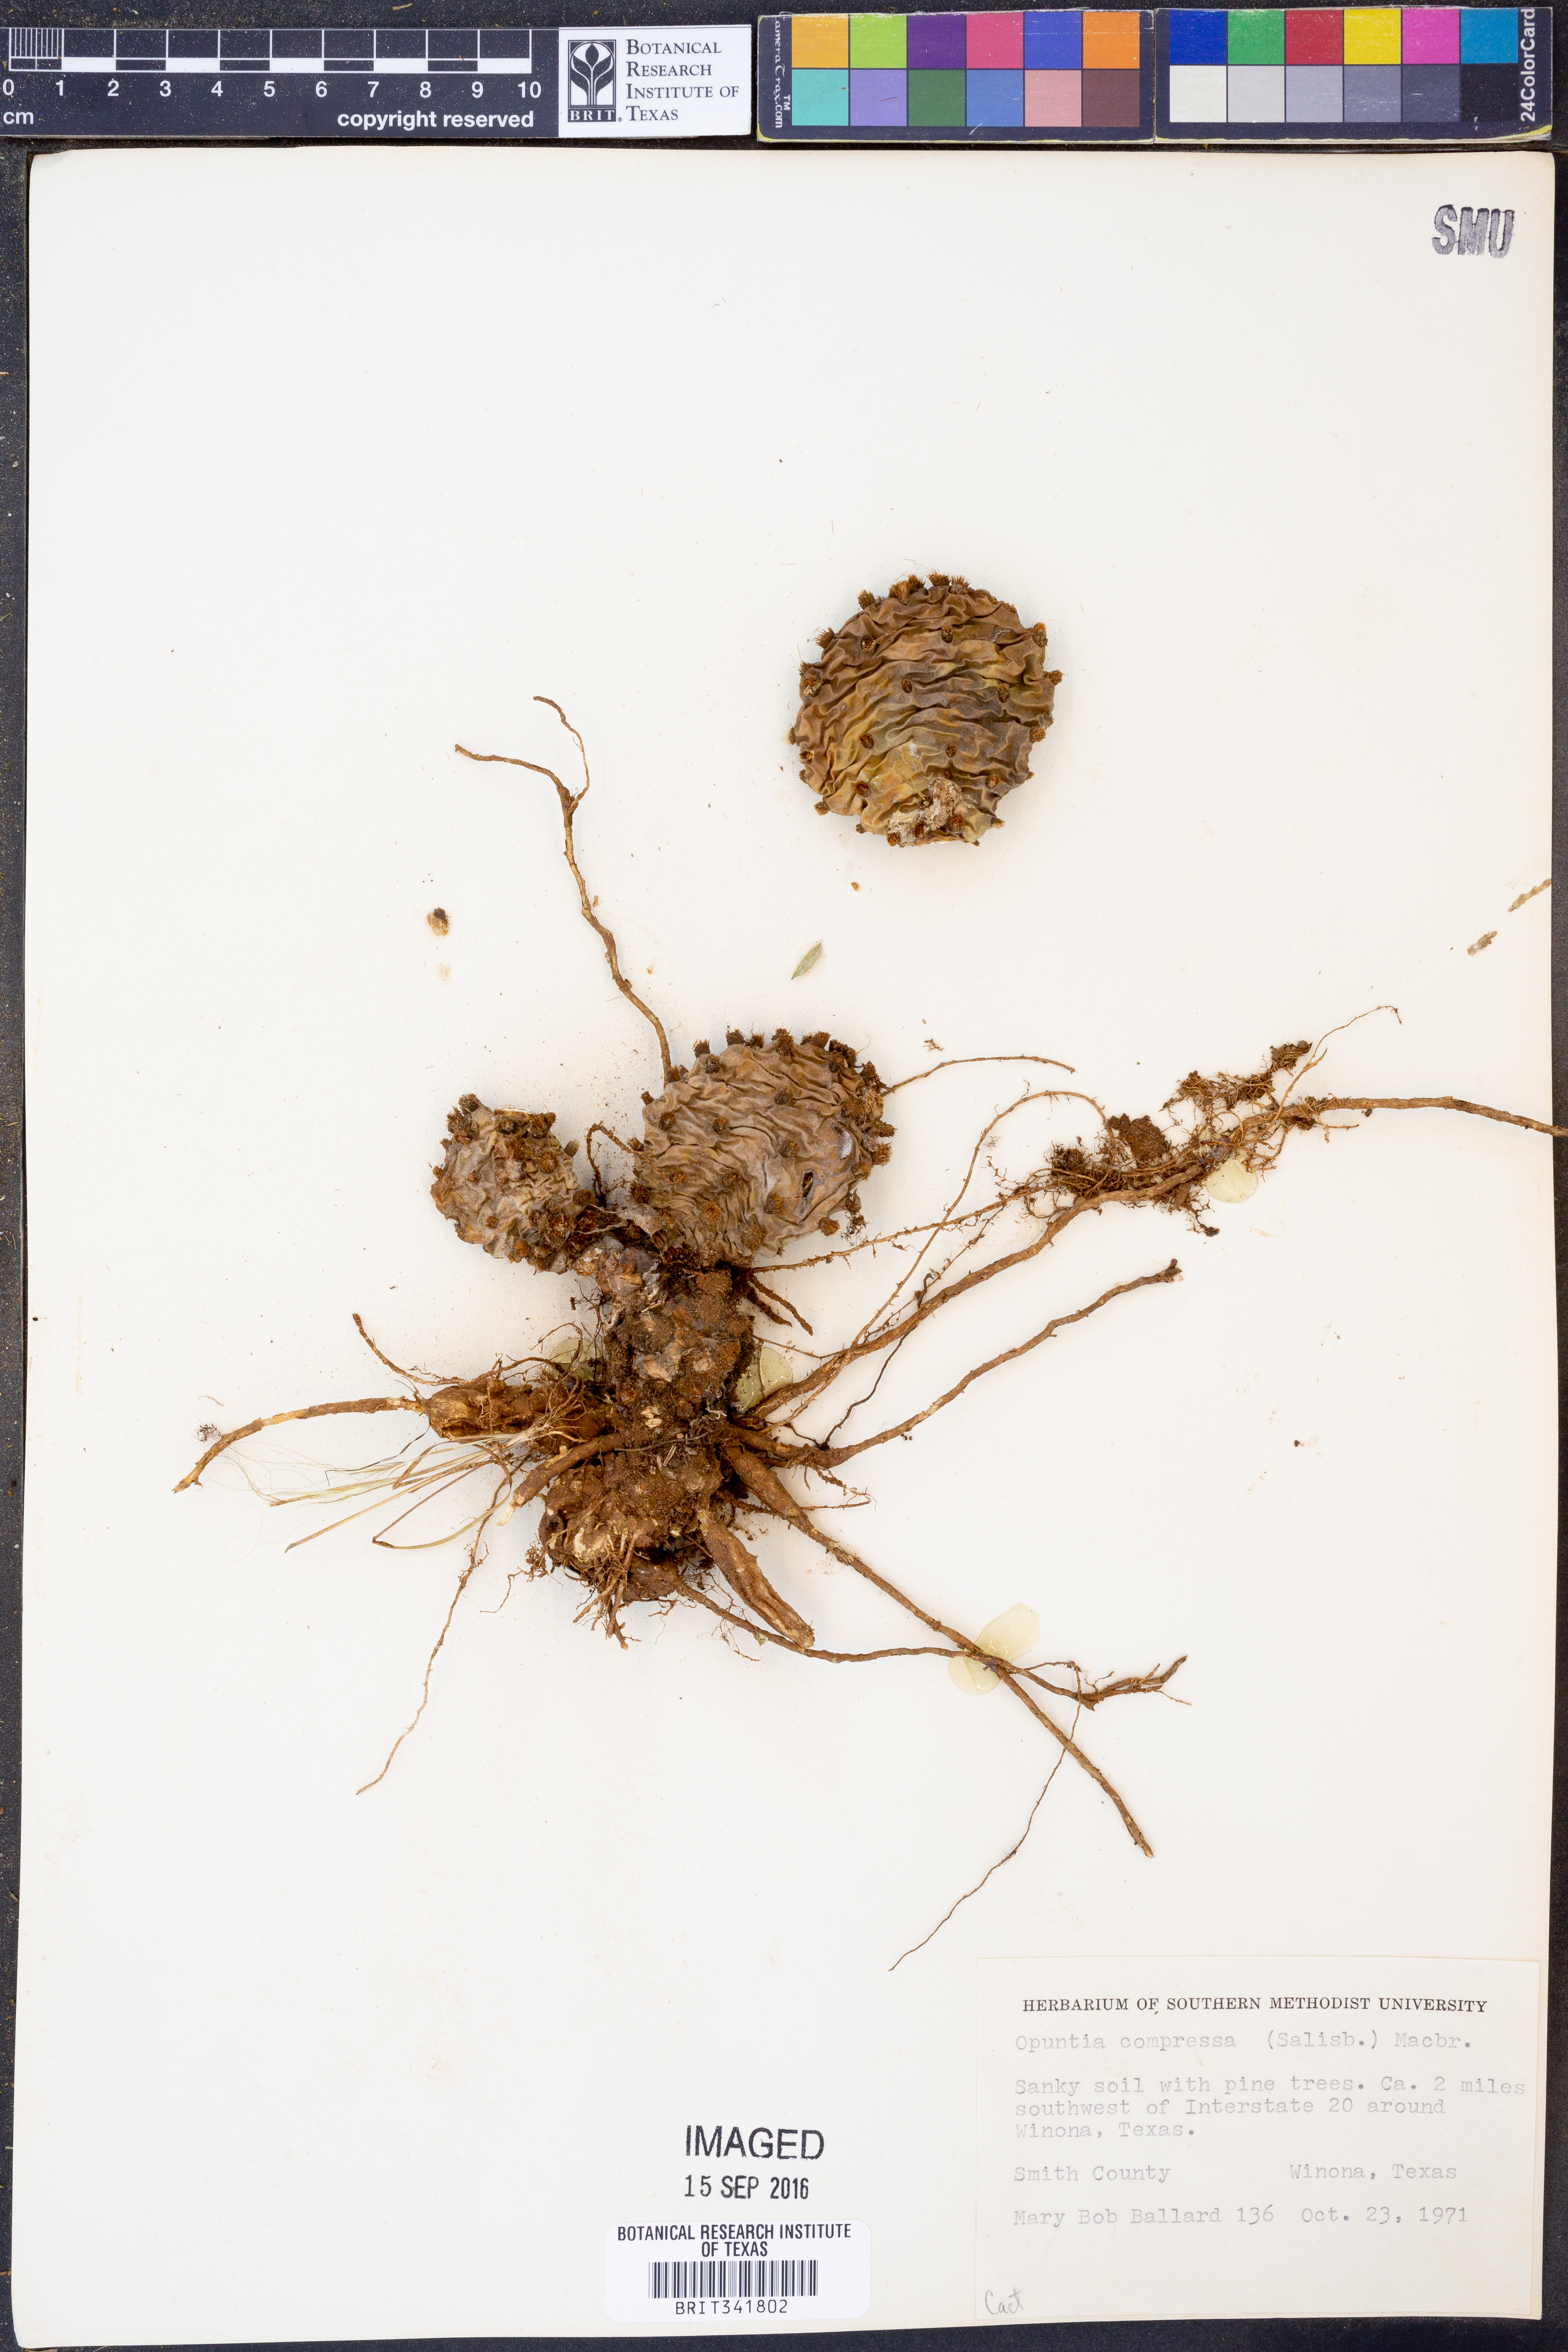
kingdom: Plantae
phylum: Tracheophyta
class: Magnoliopsida
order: Caryophyllales
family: Cactaceae
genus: Opuntia
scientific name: Opuntia humifusa
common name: Eastern prickly-pear
